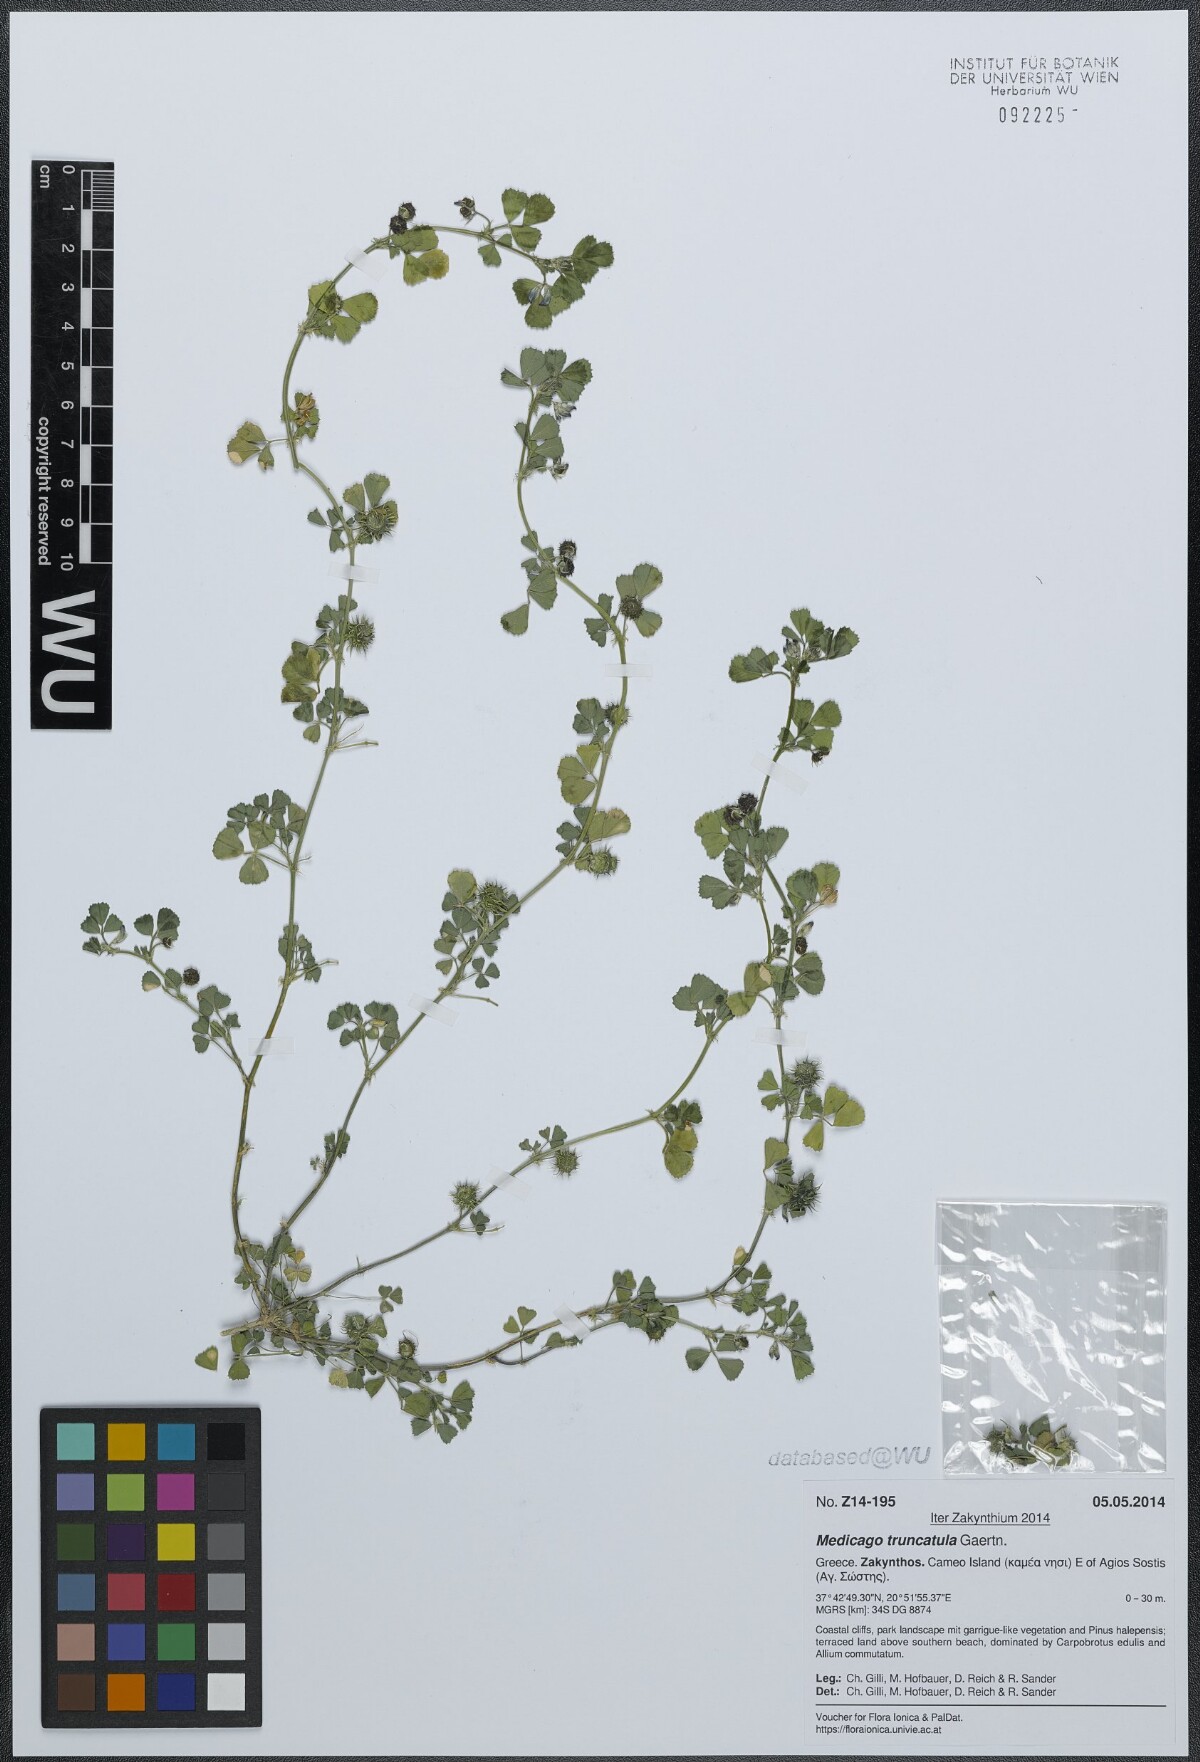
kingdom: Plantae
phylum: Tracheophyta
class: Magnoliopsida
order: Fabales
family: Fabaceae
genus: Medicago
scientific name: Medicago truncatula
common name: Strong-spined medick
